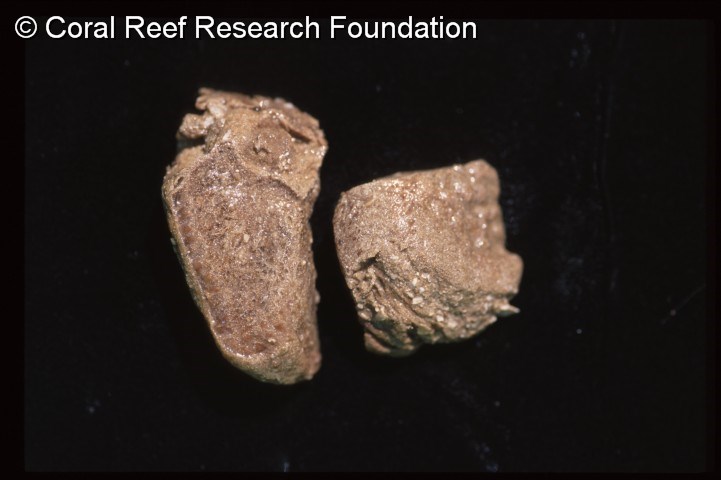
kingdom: Animalia
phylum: Chordata
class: Ascidiacea
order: Aplousobranchia
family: Polycitoridae
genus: Eudistoma
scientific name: Eudistoma
